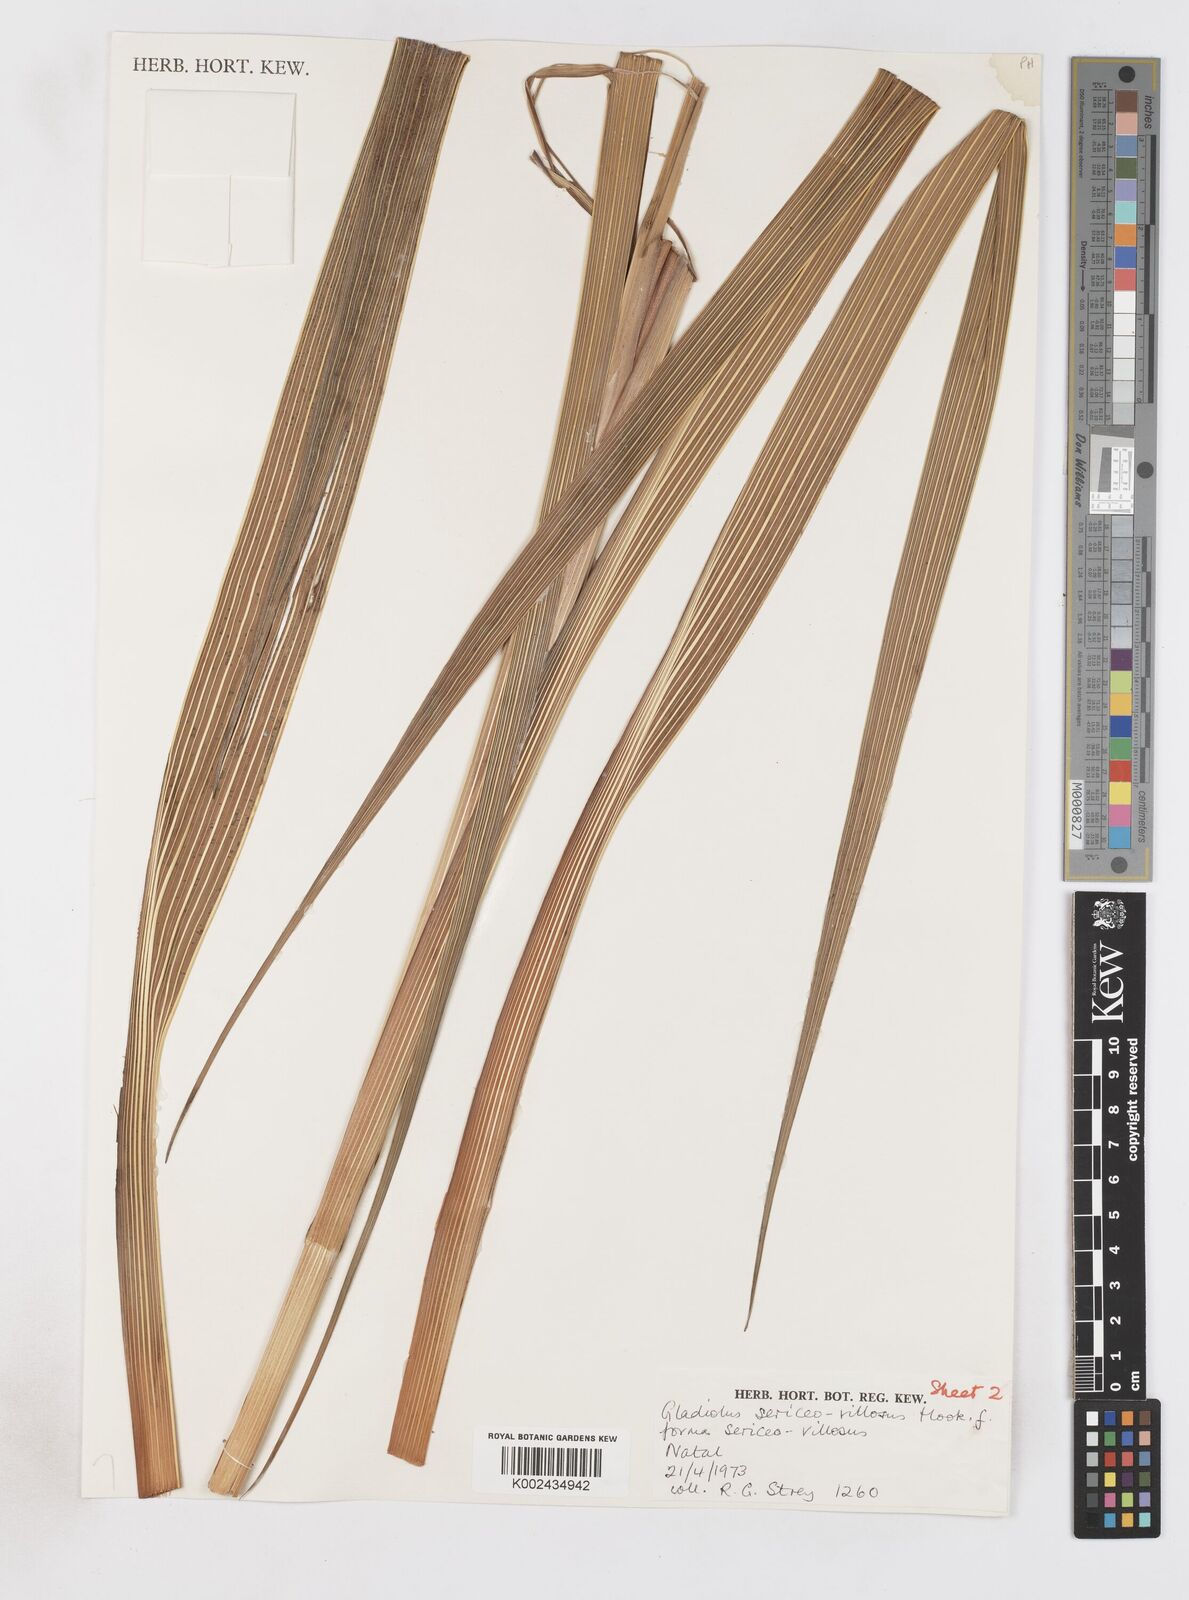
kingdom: Plantae
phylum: Tracheophyta
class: Liliopsida
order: Asparagales
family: Iridaceae
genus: Gladiolus
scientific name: Gladiolus sericeovillosus
